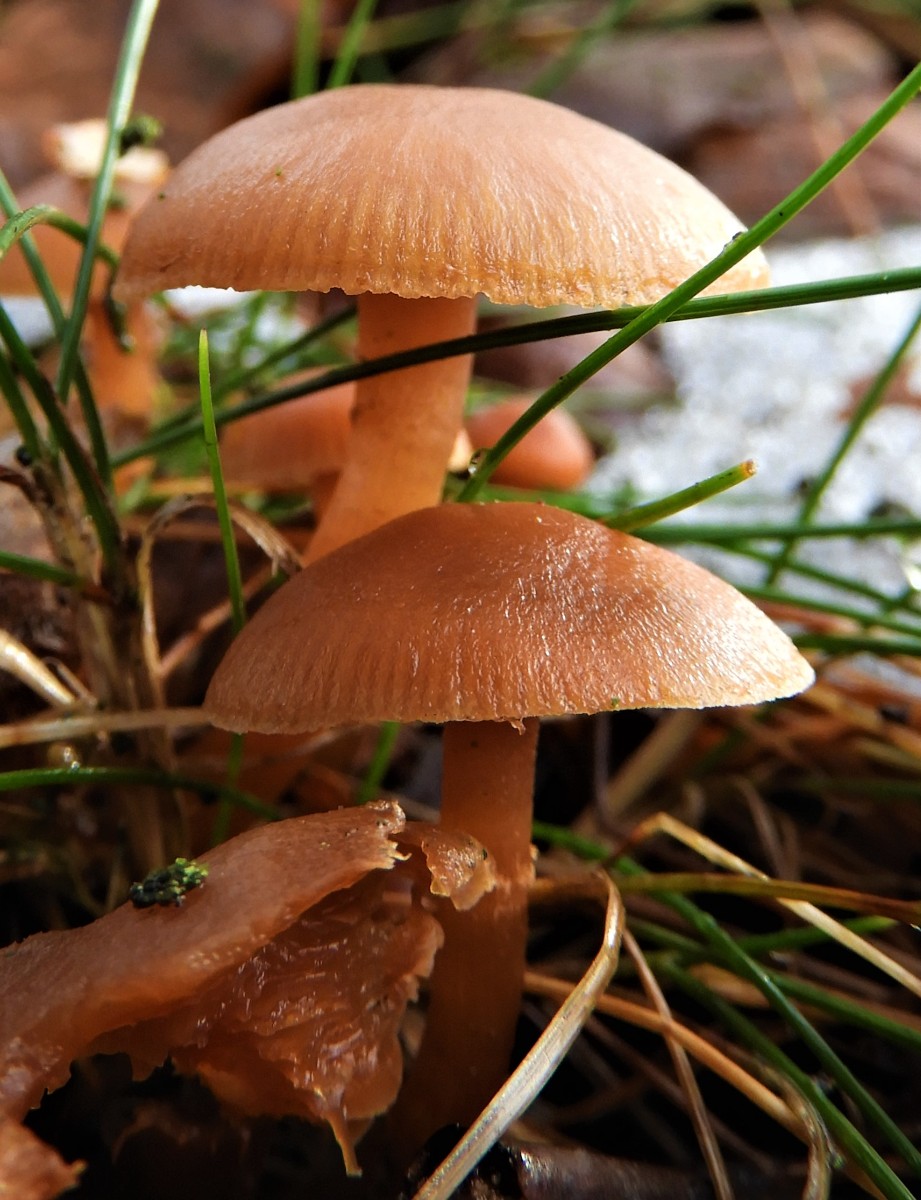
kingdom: Fungi
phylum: Basidiomycota
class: Agaricomycetes
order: Agaricales
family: Tubariaceae
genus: Tubaria
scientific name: Tubaria furfuracea
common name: kliddet fnughat
